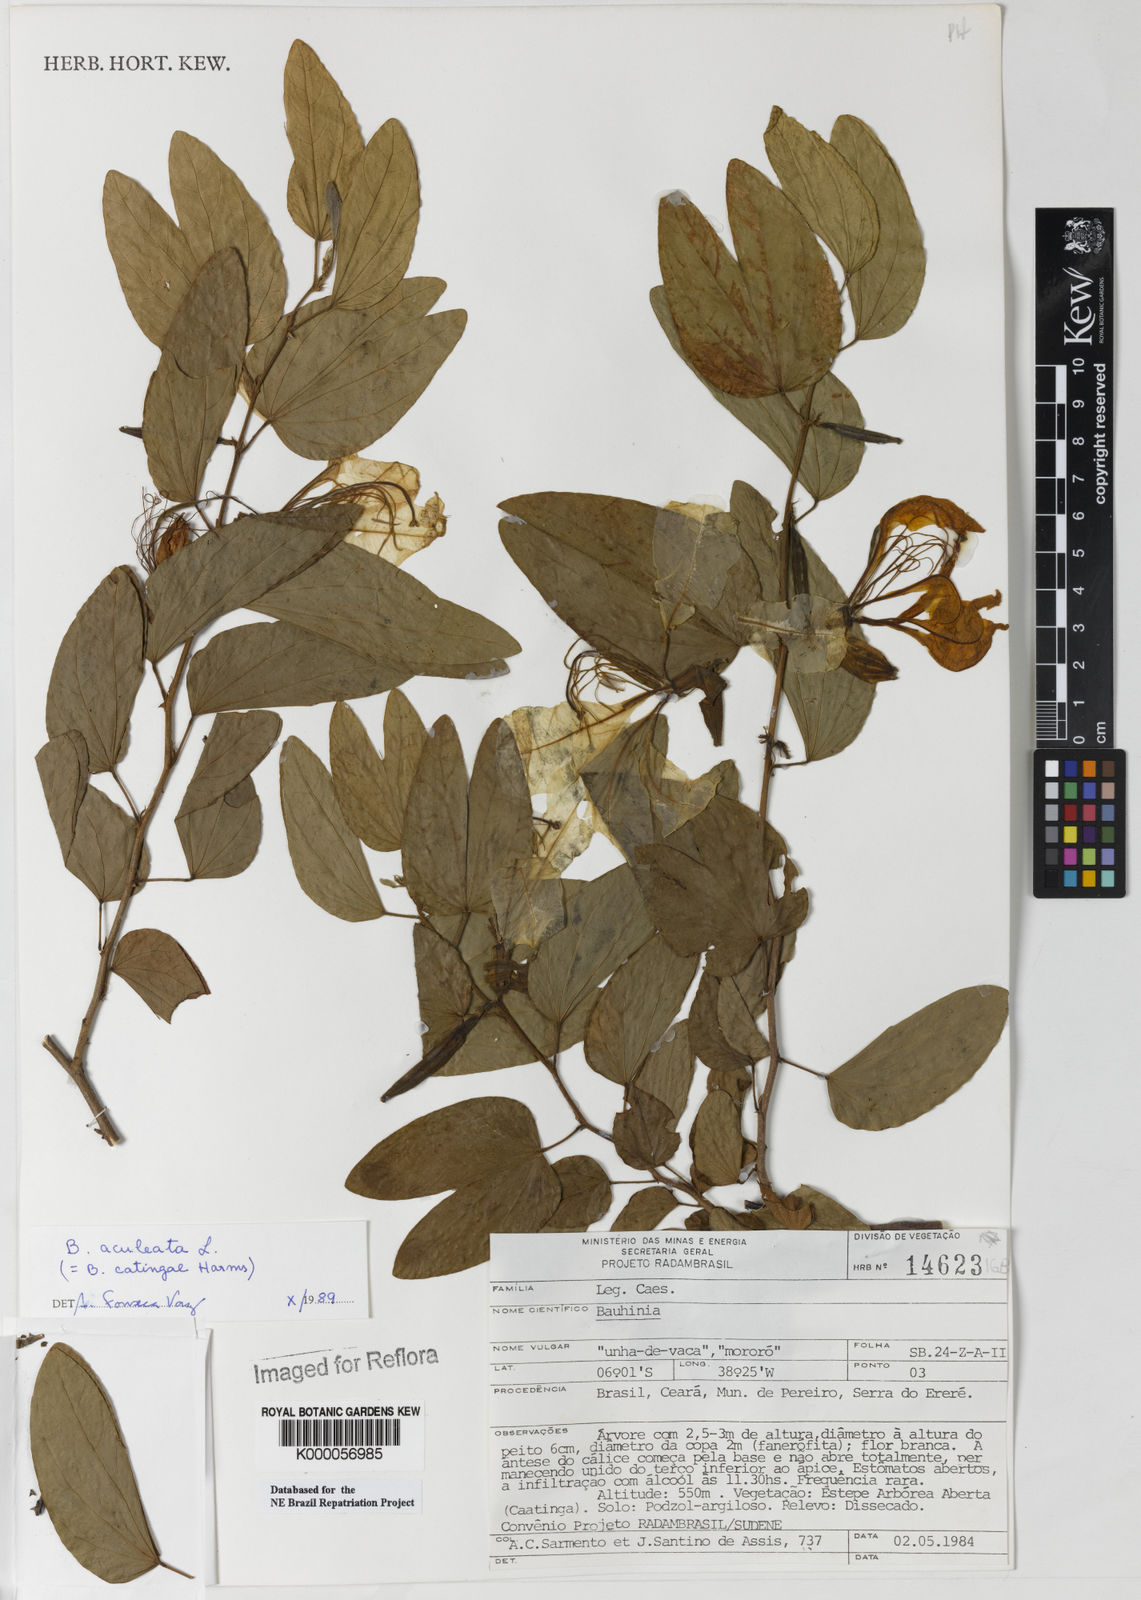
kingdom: Plantae
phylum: Tracheophyta
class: Magnoliopsida
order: Fabales
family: Fabaceae
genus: Bauhinia
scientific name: Bauhinia aculeata
